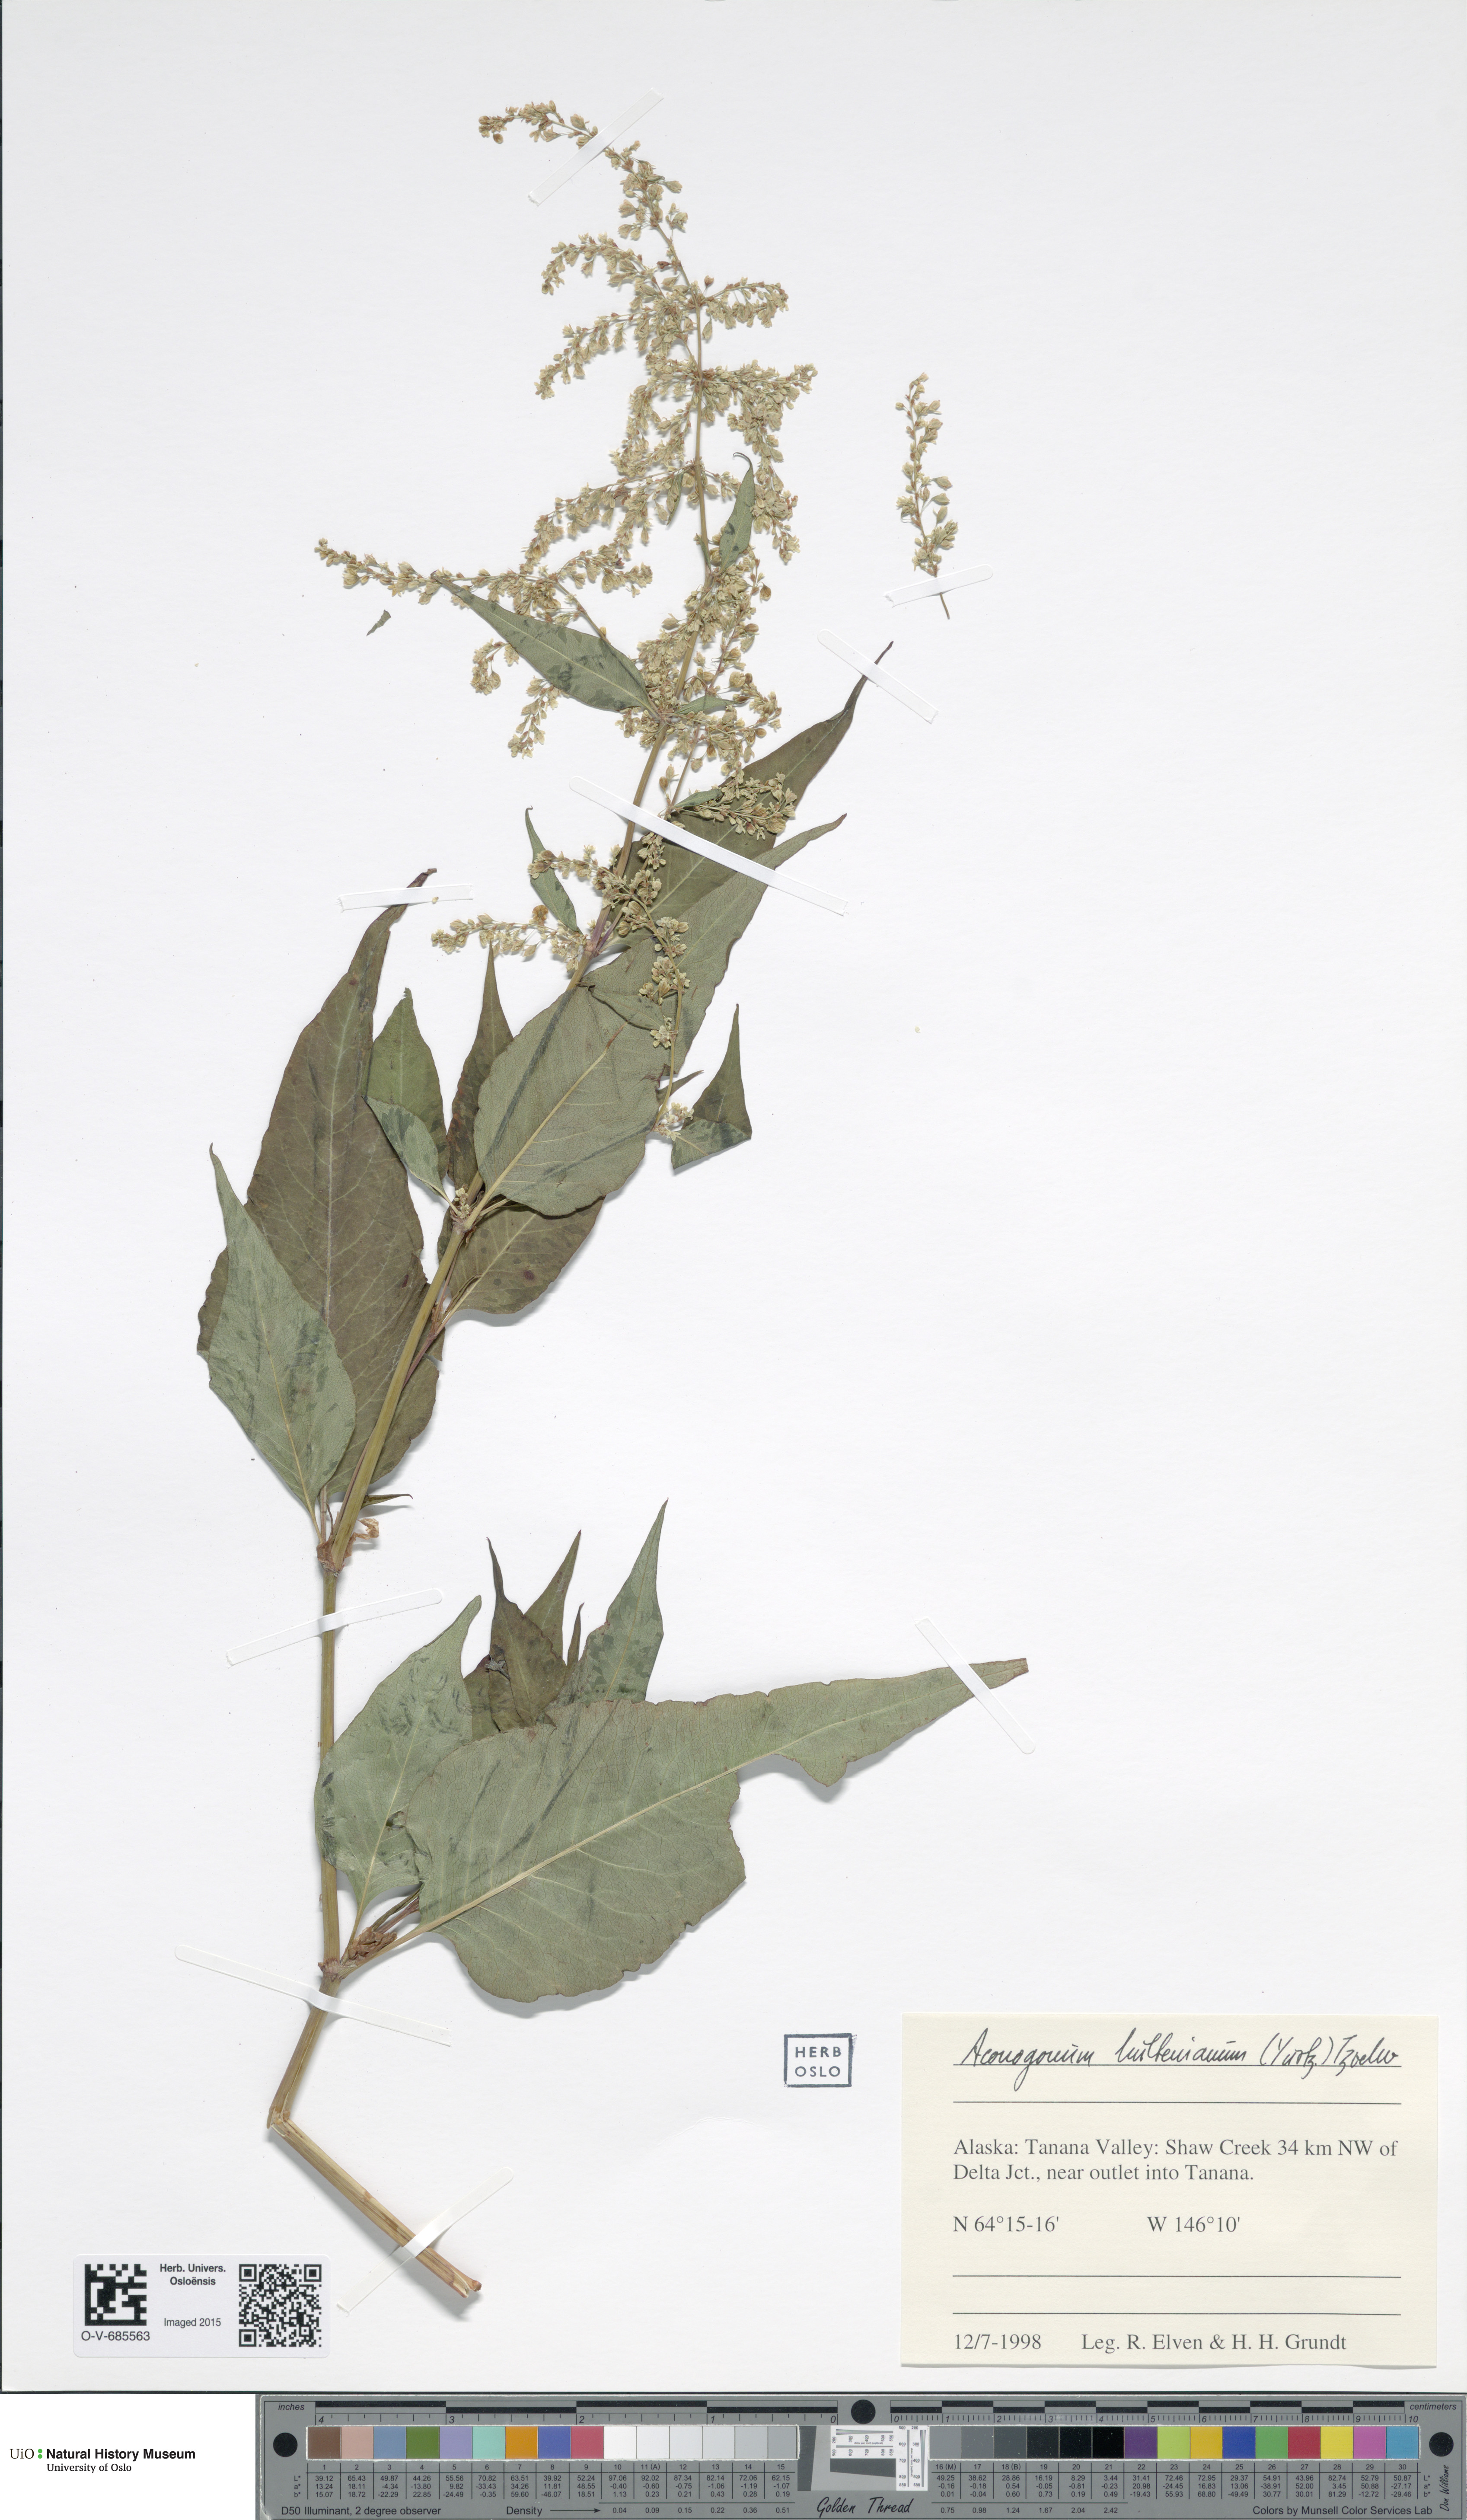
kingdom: Plantae
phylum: Tracheophyta
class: Magnoliopsida
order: Caryophyllales
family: Polygonaceae
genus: Koenigia
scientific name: Koenigia lapathifolia
